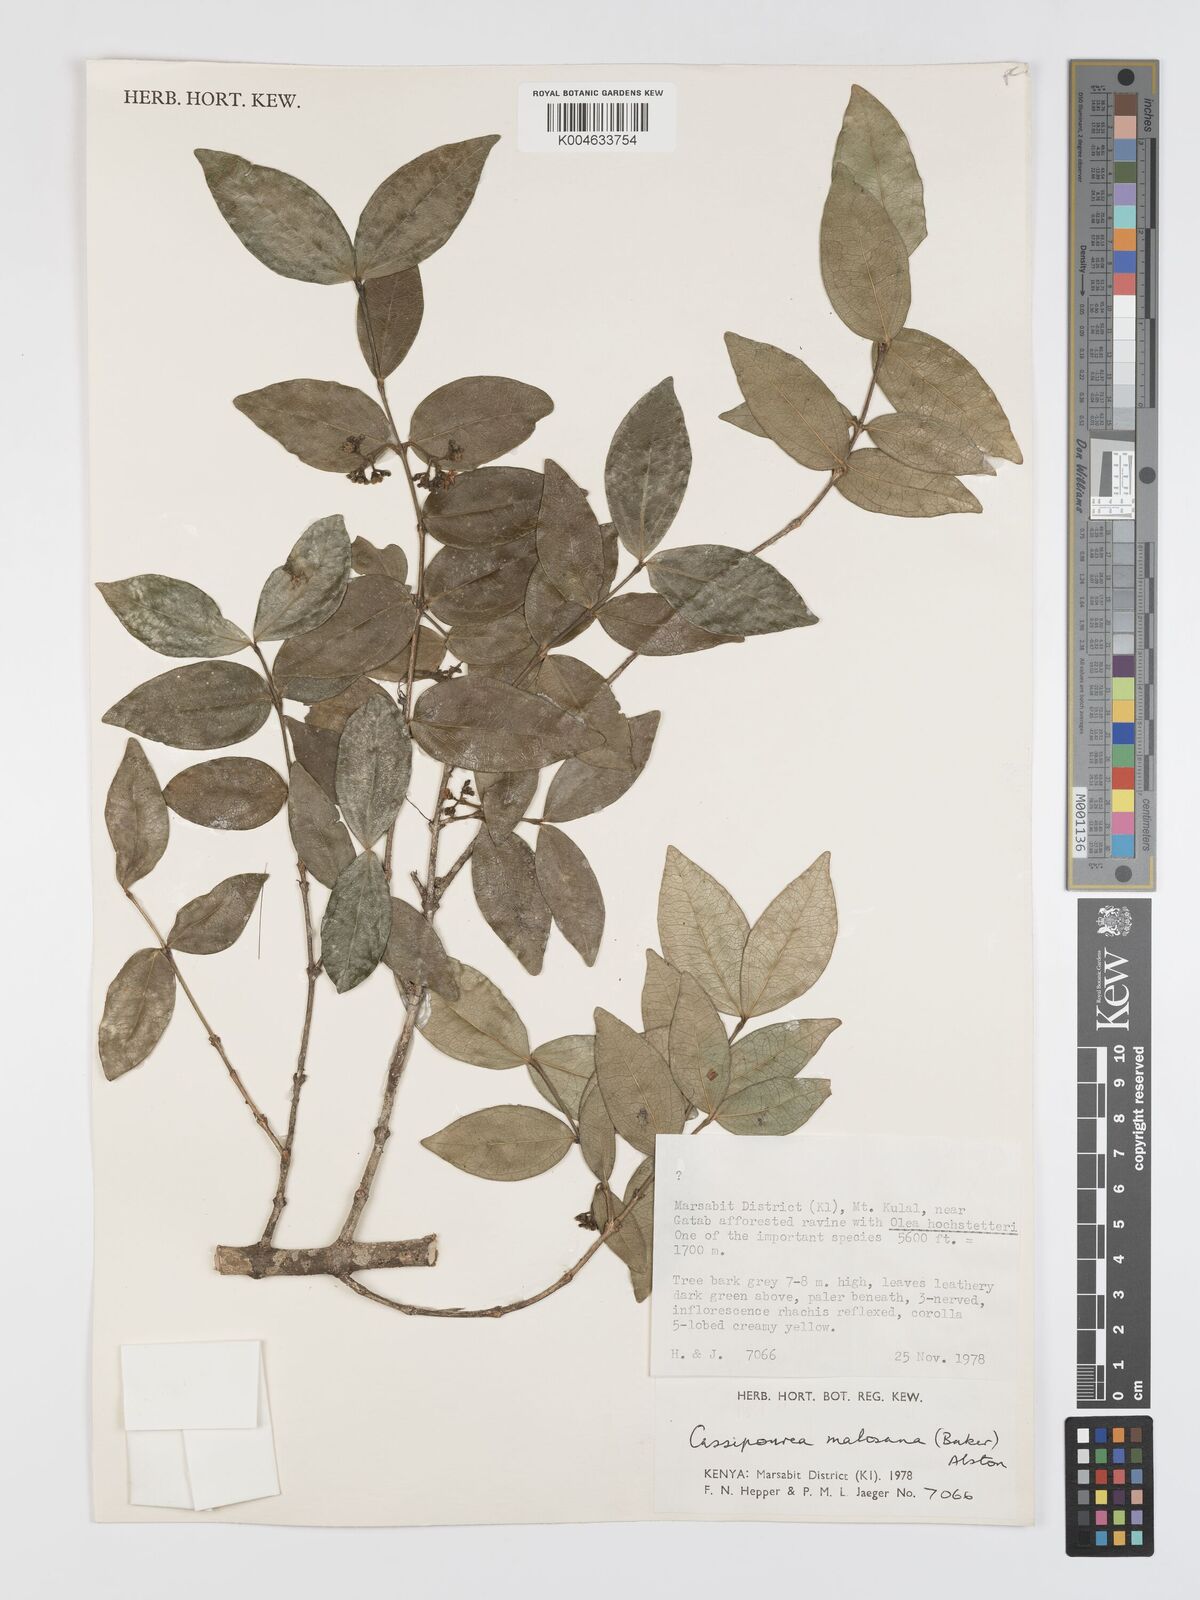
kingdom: Plantae
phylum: Tracheophyta
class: Magnoliopsida
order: Malpighiales
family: Rhizophoraceae
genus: Cassipourea
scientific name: Cassipourea
